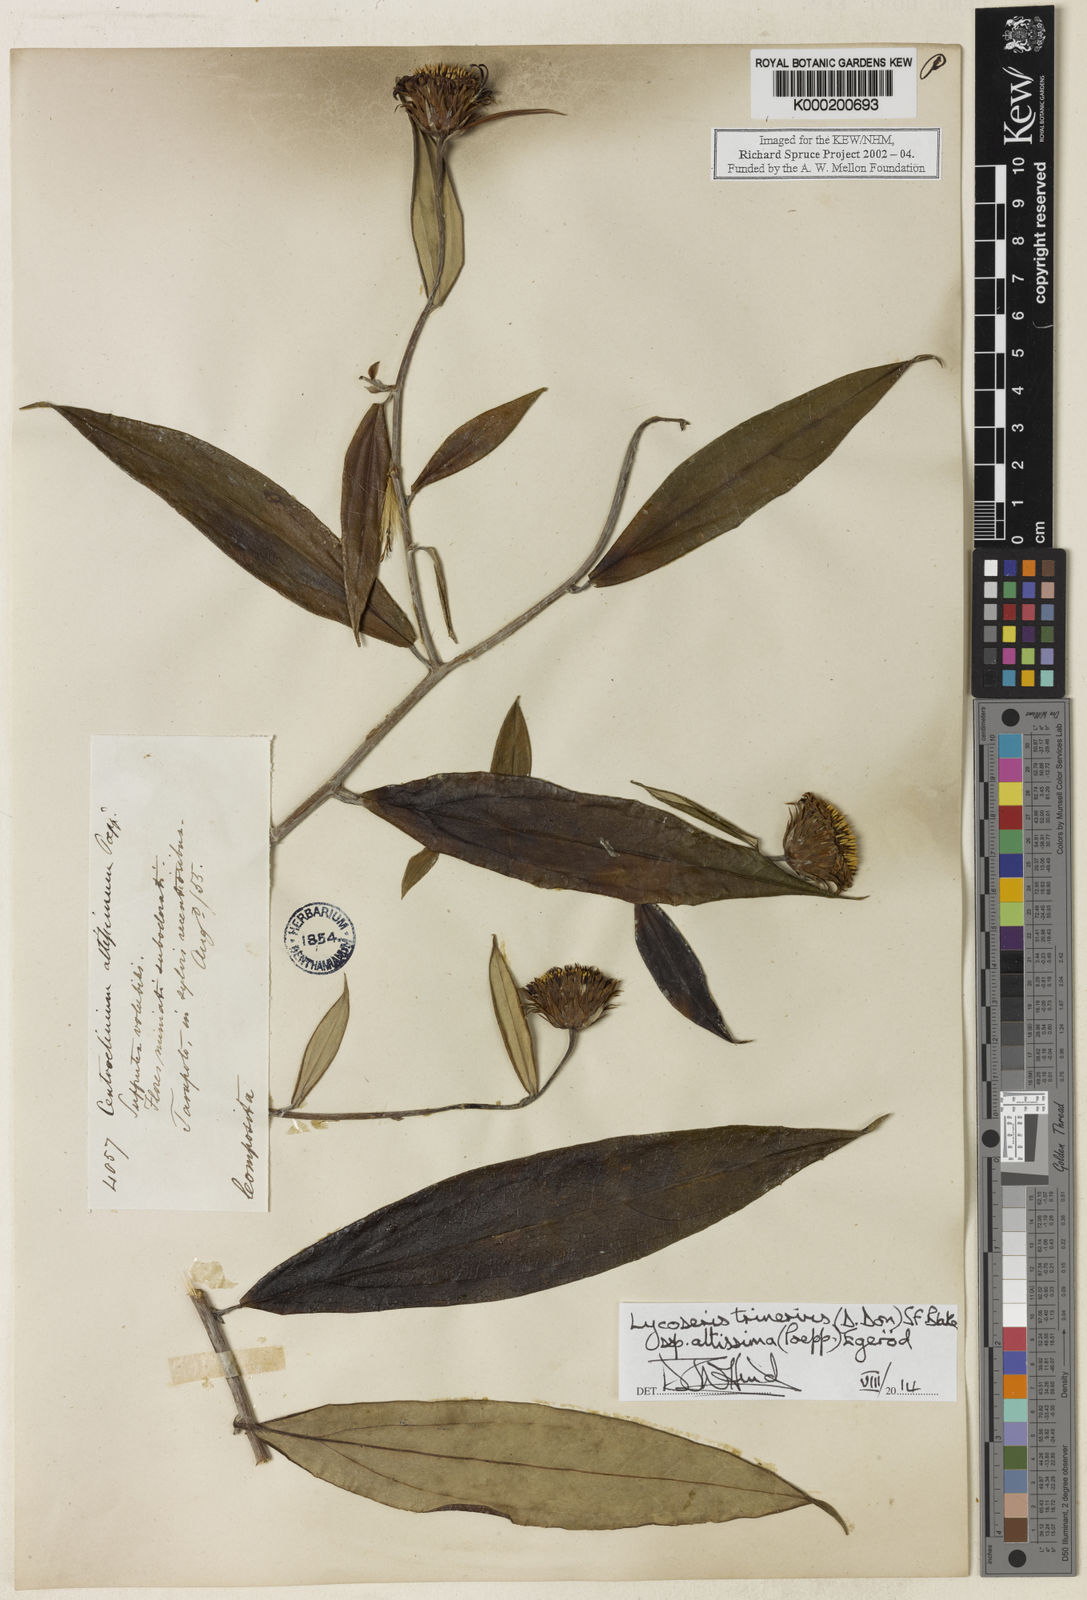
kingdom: Plantae
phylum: Tracheophyta
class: Magnoliopsida
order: Asterales
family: Asteraceae
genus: Lycoseris
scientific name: Lycoseris trinervis
